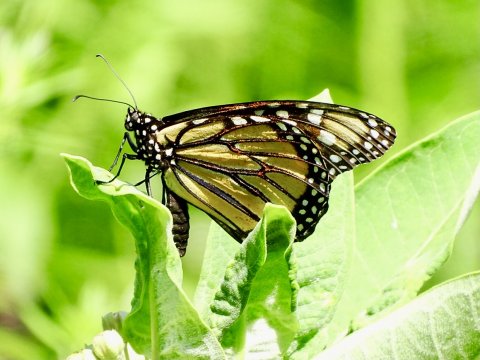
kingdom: Animalia
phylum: Arthropoda
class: Insecta
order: Lepidoptera
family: Nymphalidae
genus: Danaus
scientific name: Danaus plexippus
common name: Monarch
